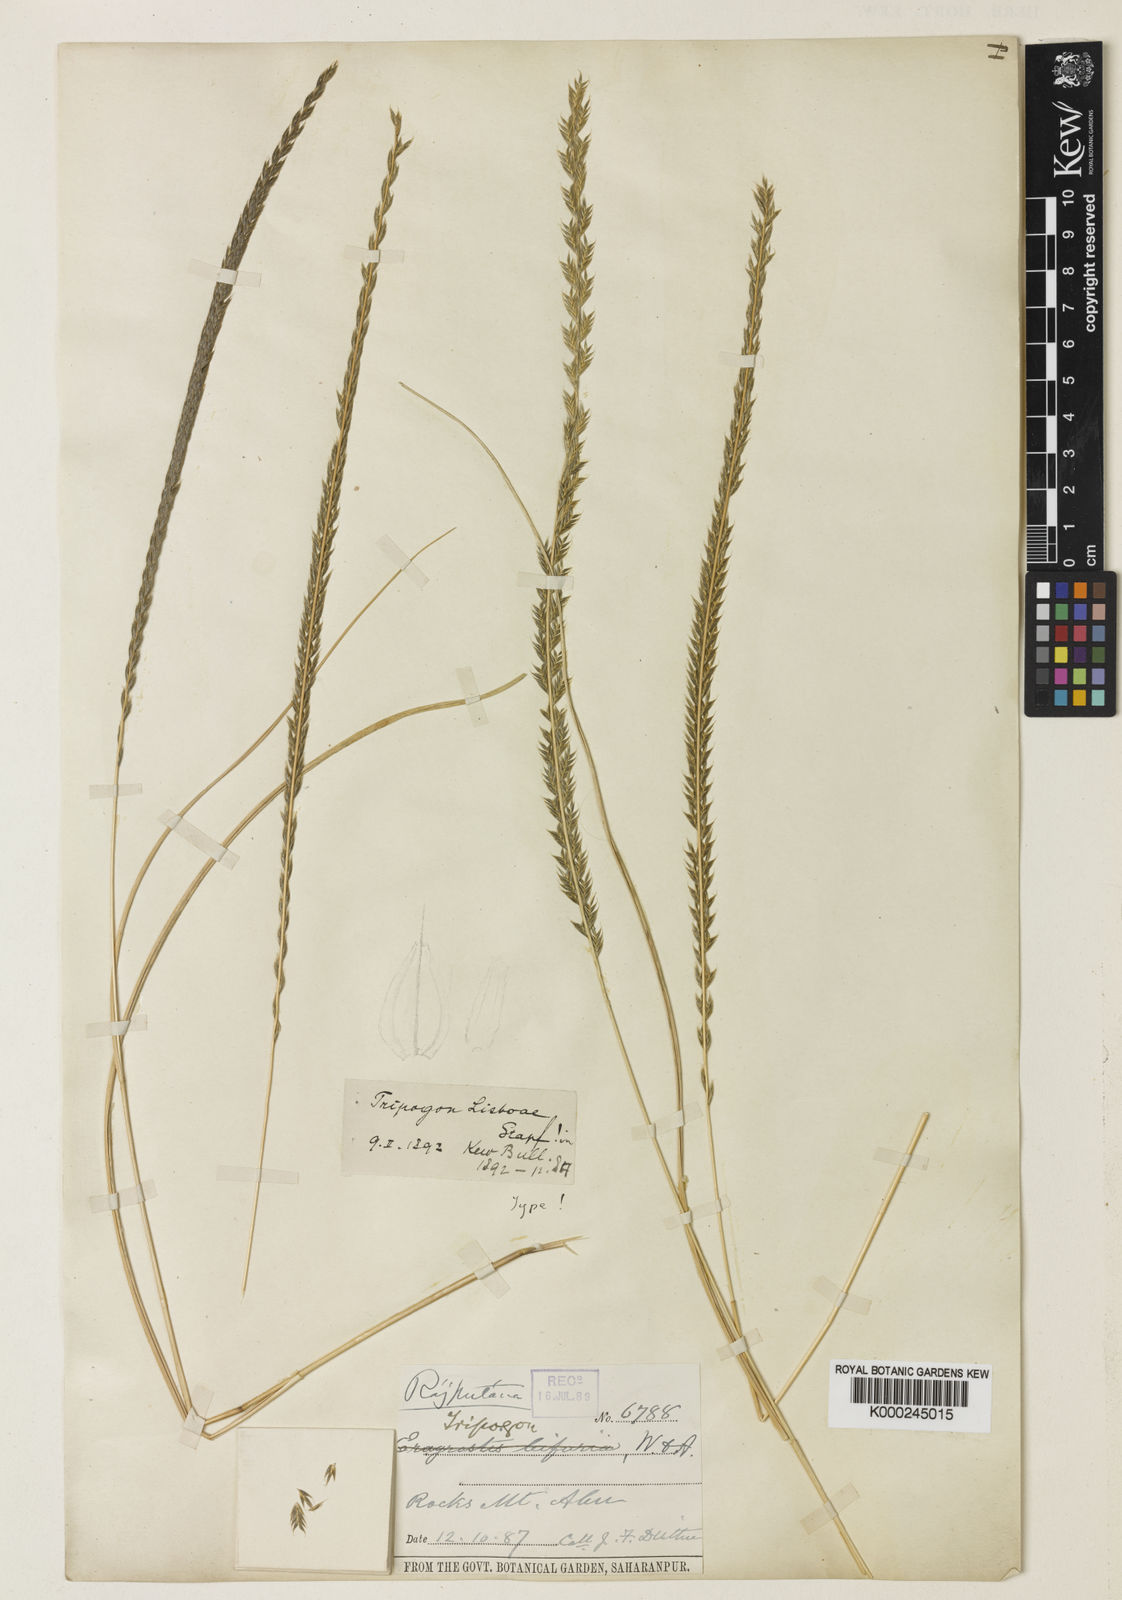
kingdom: Plantae
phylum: Tracheophyta
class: Liliopsida
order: Poales
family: Poaceae
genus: Tripogon
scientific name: Tripogon lisboae
